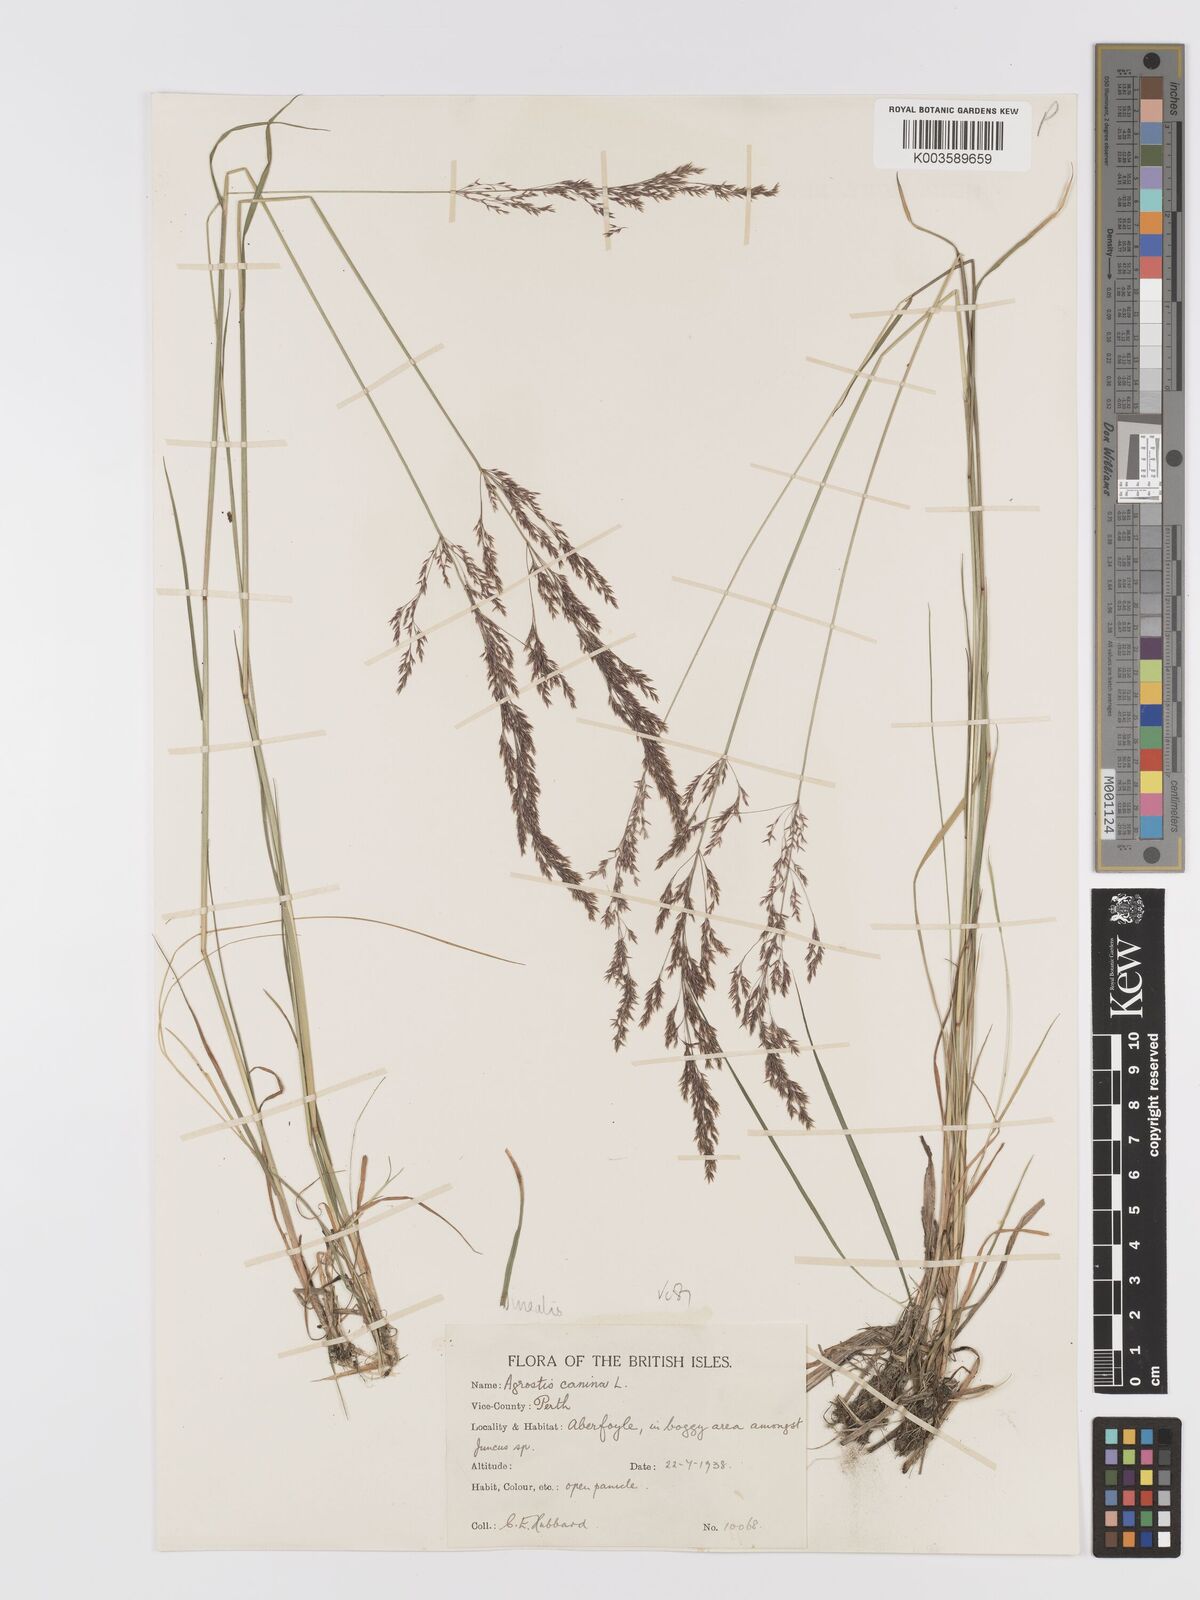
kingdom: Plantae
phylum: Tracheophyta
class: Liliopsida
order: Poales
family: Poaceae
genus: Agrostis
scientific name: Agrostis
